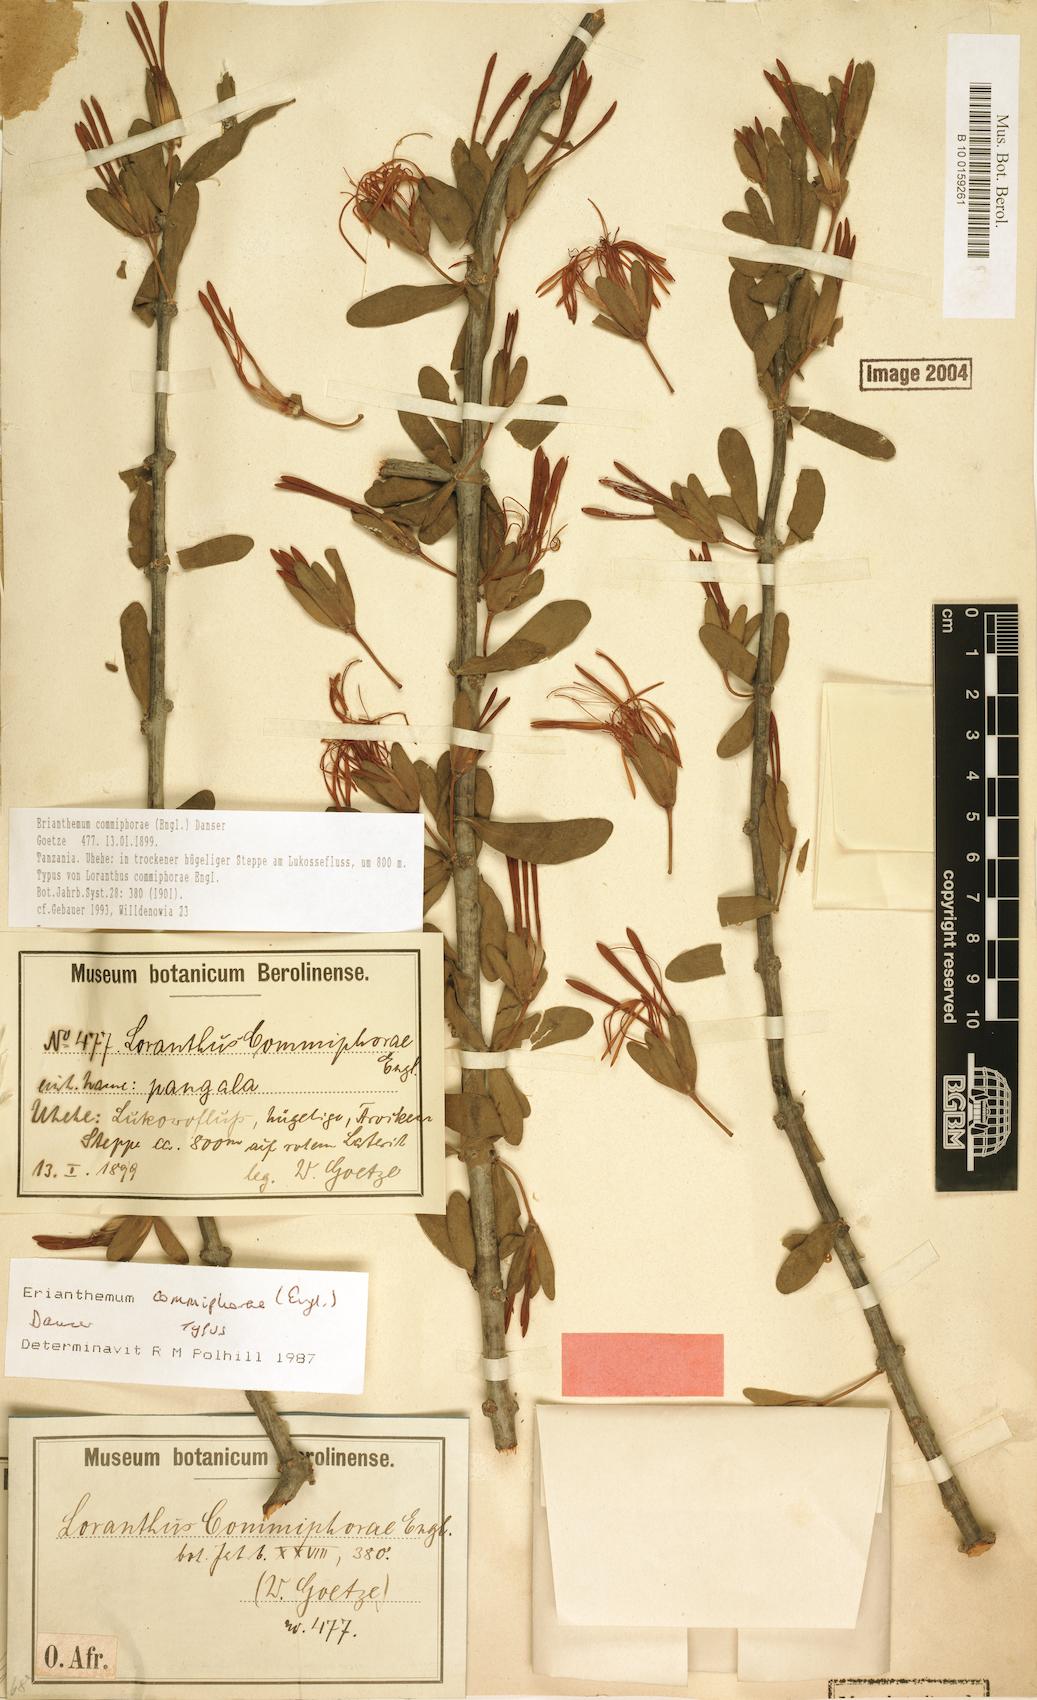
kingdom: Plantae
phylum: Tracheophyta
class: Magnoliopsida
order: Santalales
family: Loranthaceae
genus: Erianthemum
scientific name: Erianthemum commiphorae
